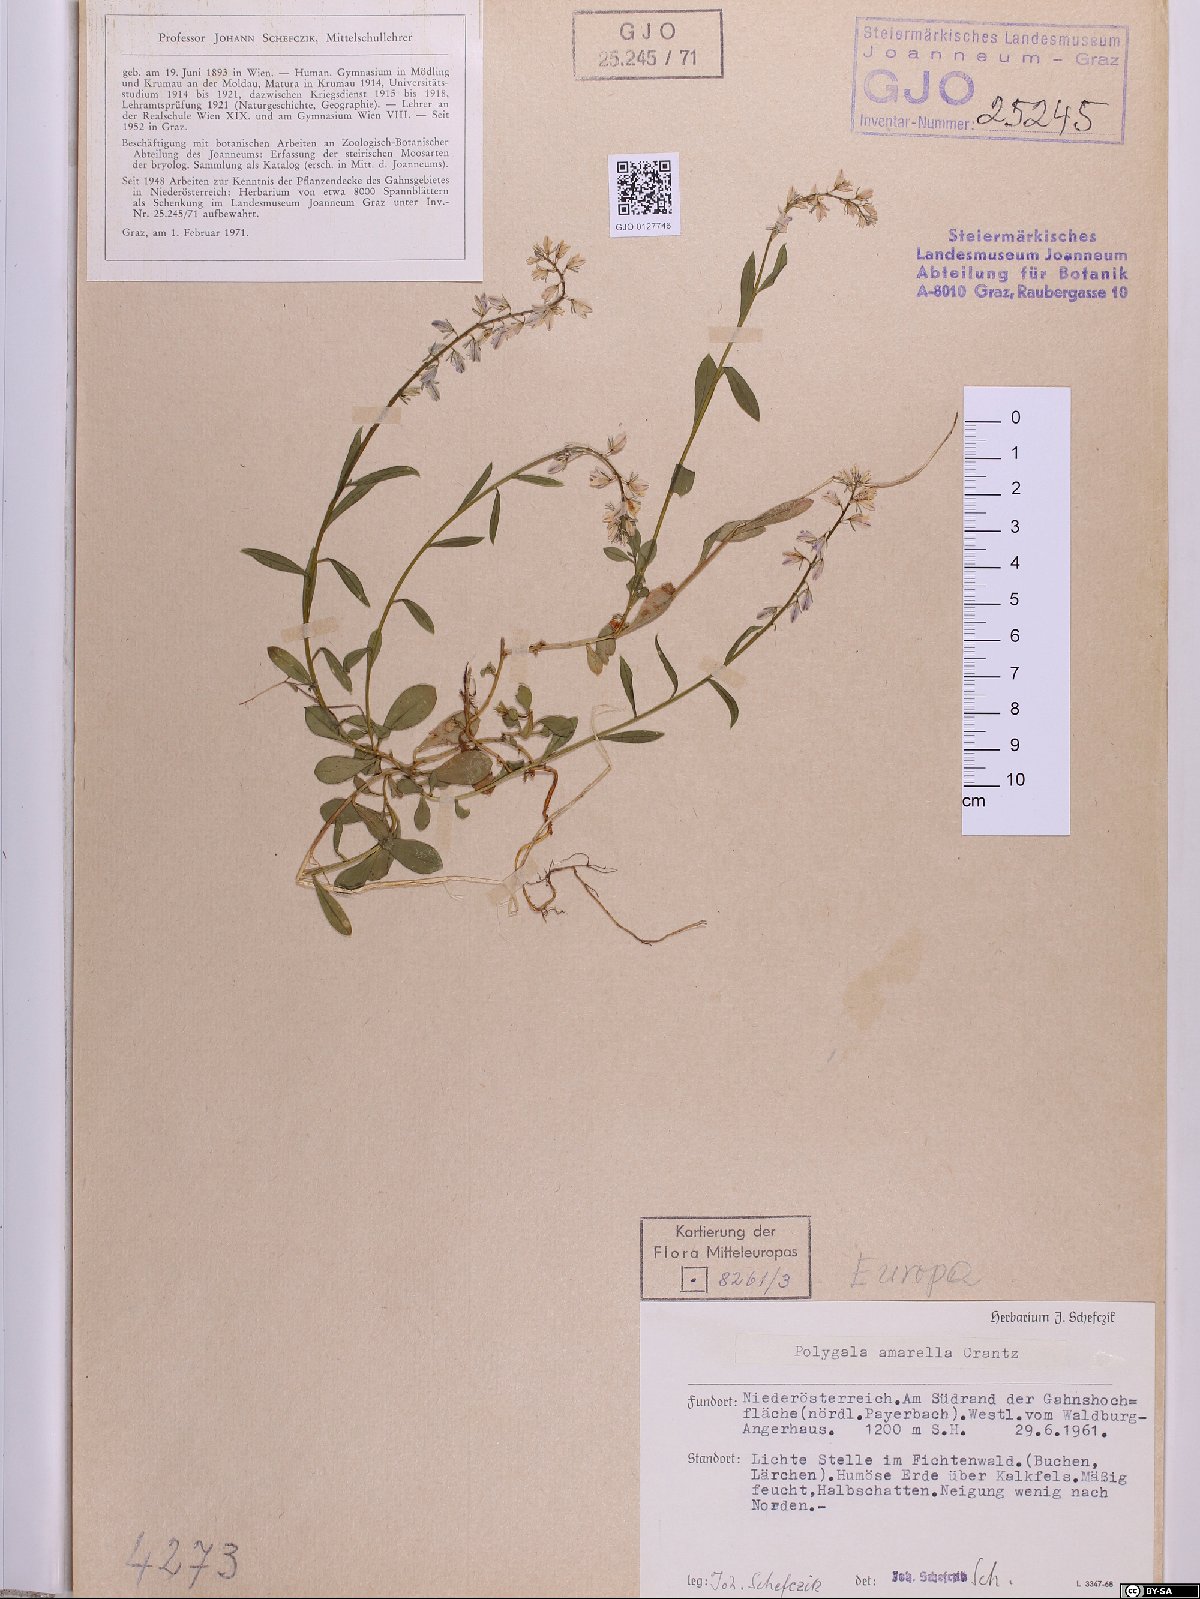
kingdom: Plantae
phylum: Tracheophyta
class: Magnoliopsida
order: Fabales
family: Polygalaceae
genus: Polygala
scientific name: Polygala amarella
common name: Dwarf milkwort
